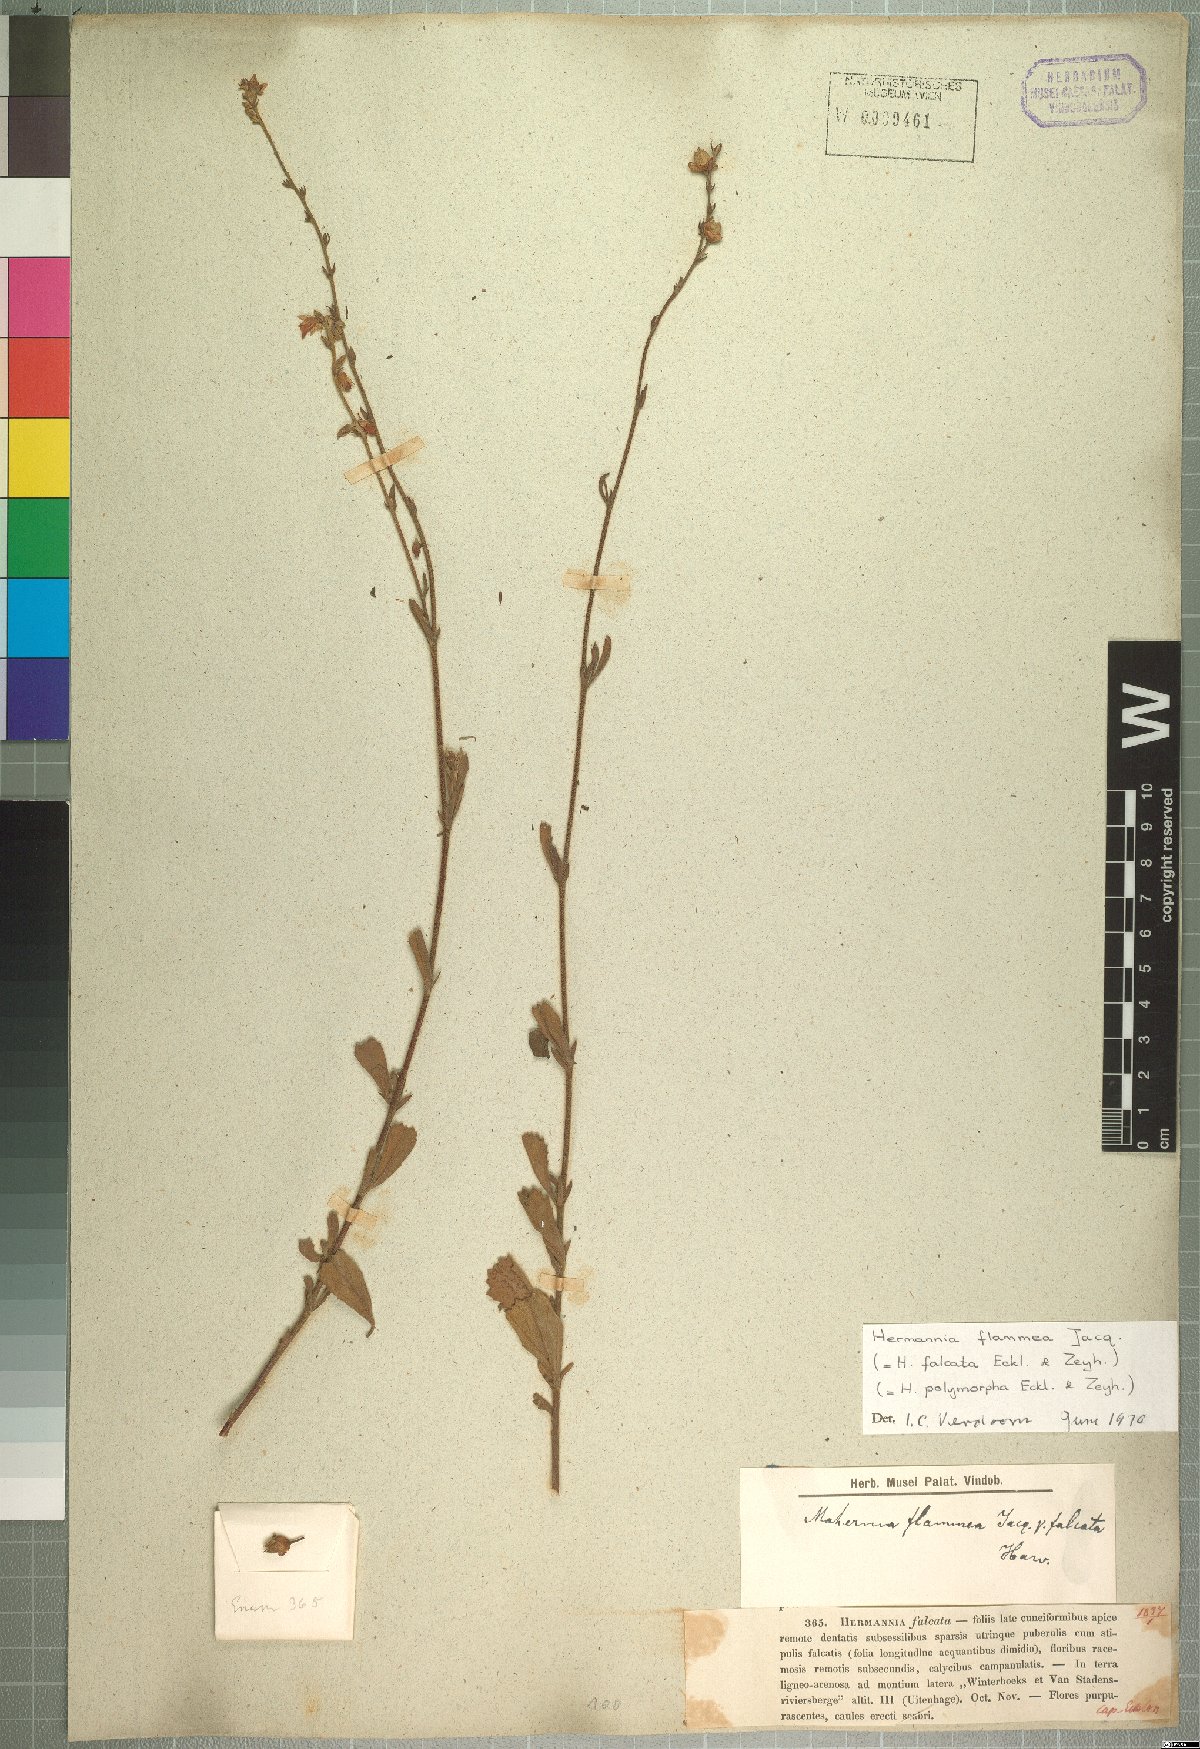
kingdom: Plantae
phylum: Tracheophyta
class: Magnoliopsida
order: Malvales
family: Malvaceae
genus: Hermannia
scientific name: Hermannia flammea
